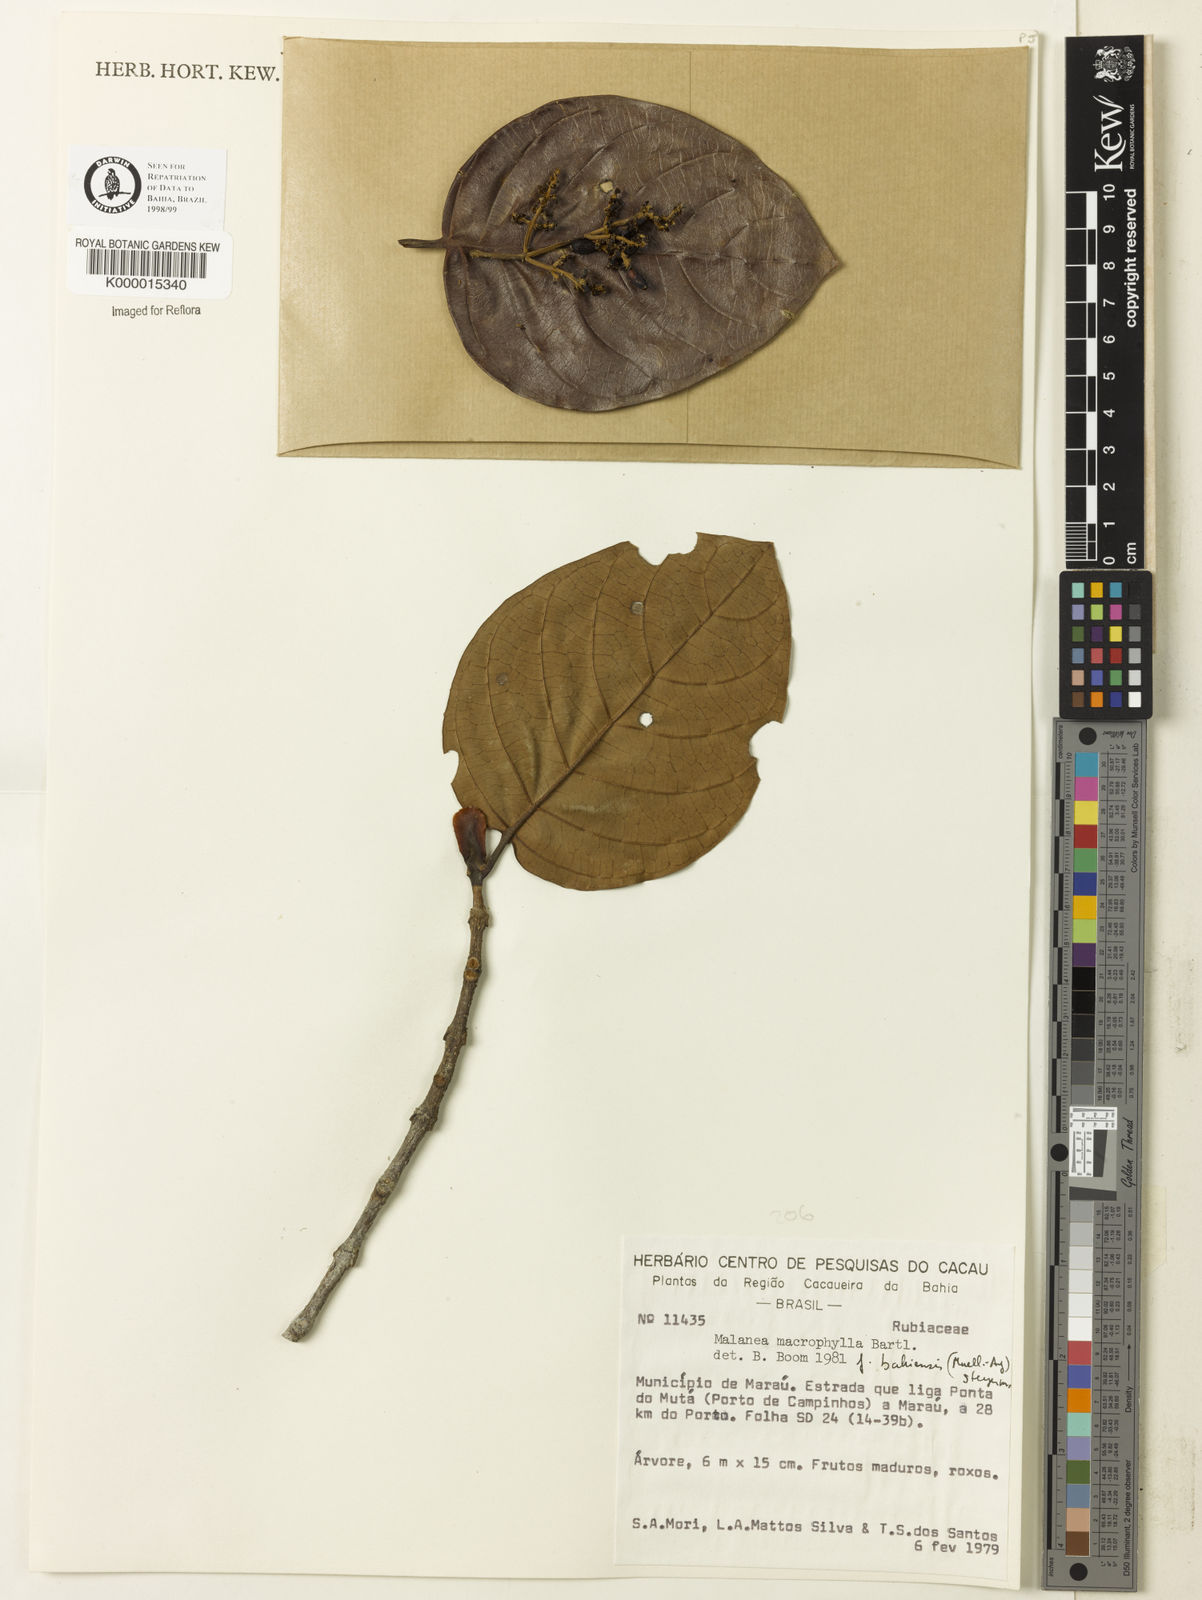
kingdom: Plantae
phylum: Tracheophyta
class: Magnoliopsida
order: Gentianales
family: Rubiaceae
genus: Malanea
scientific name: Malanea glabra
